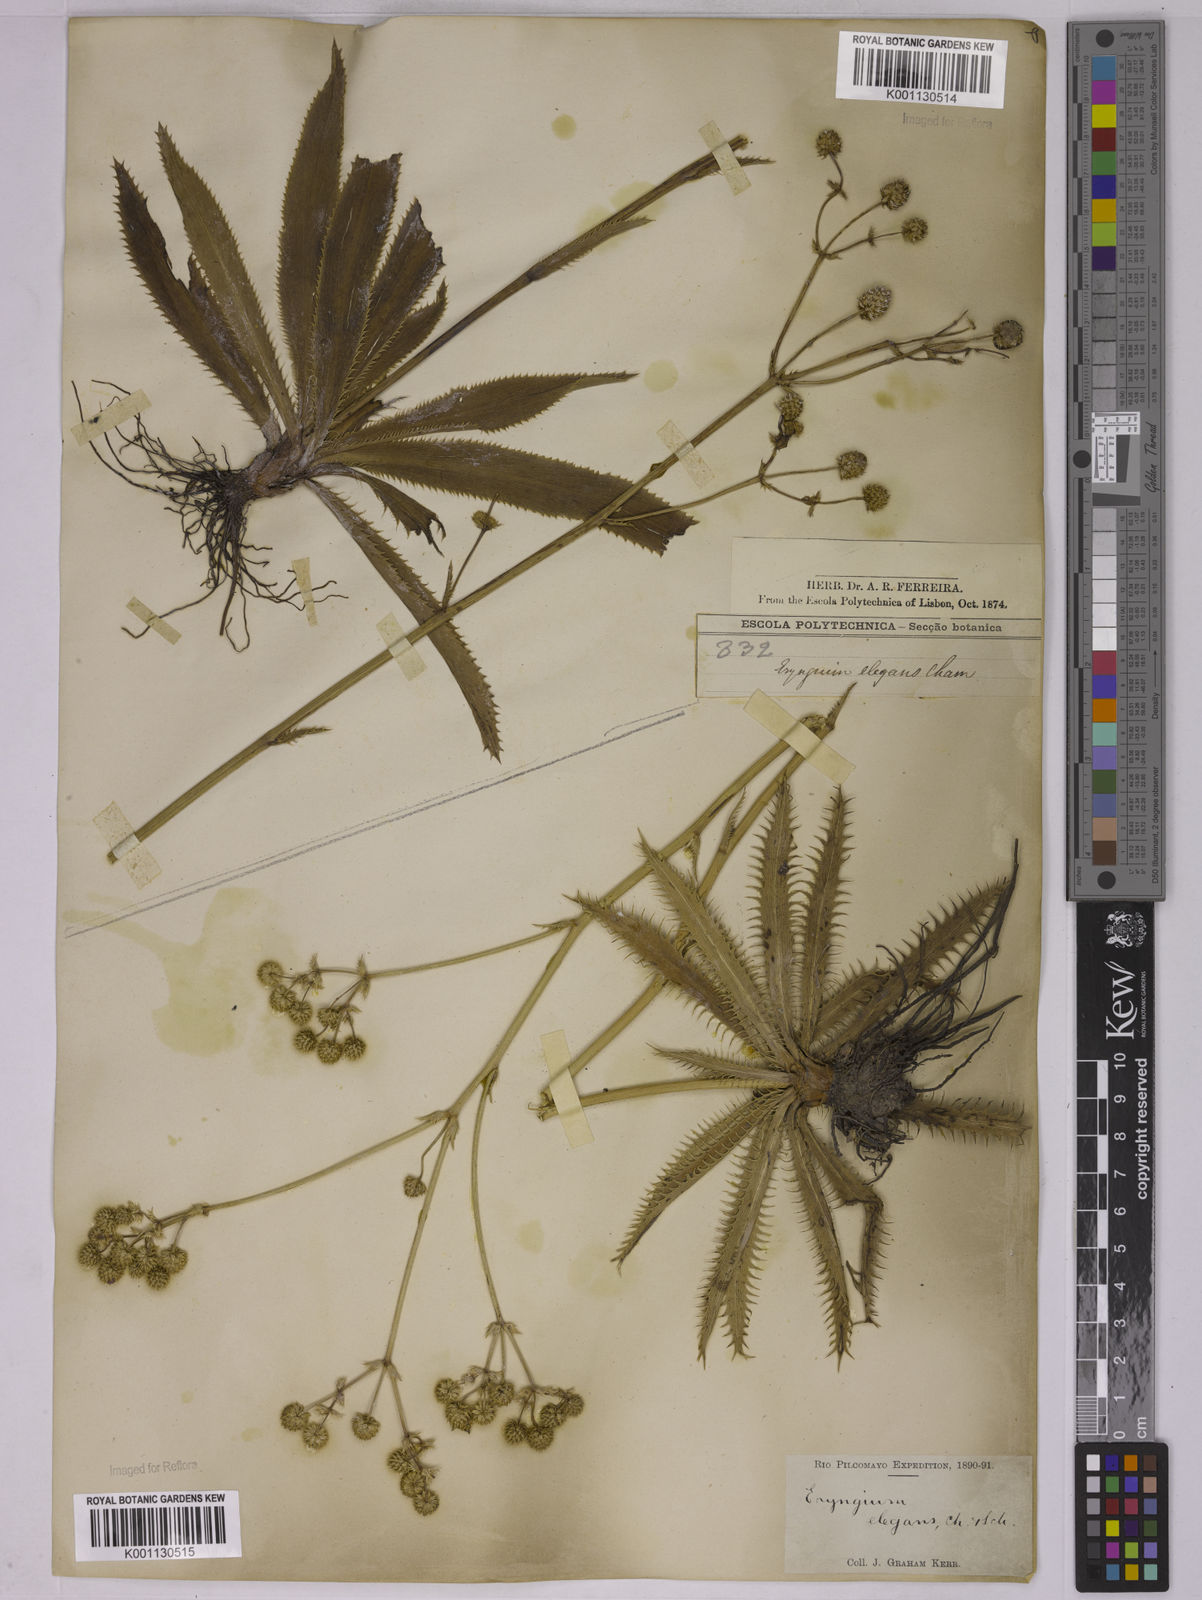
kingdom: Plantae
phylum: Tracheophyta
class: Magnoliopsida
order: Apiales
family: Apiaceae
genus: Eryngium
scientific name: Eryngium elegans
